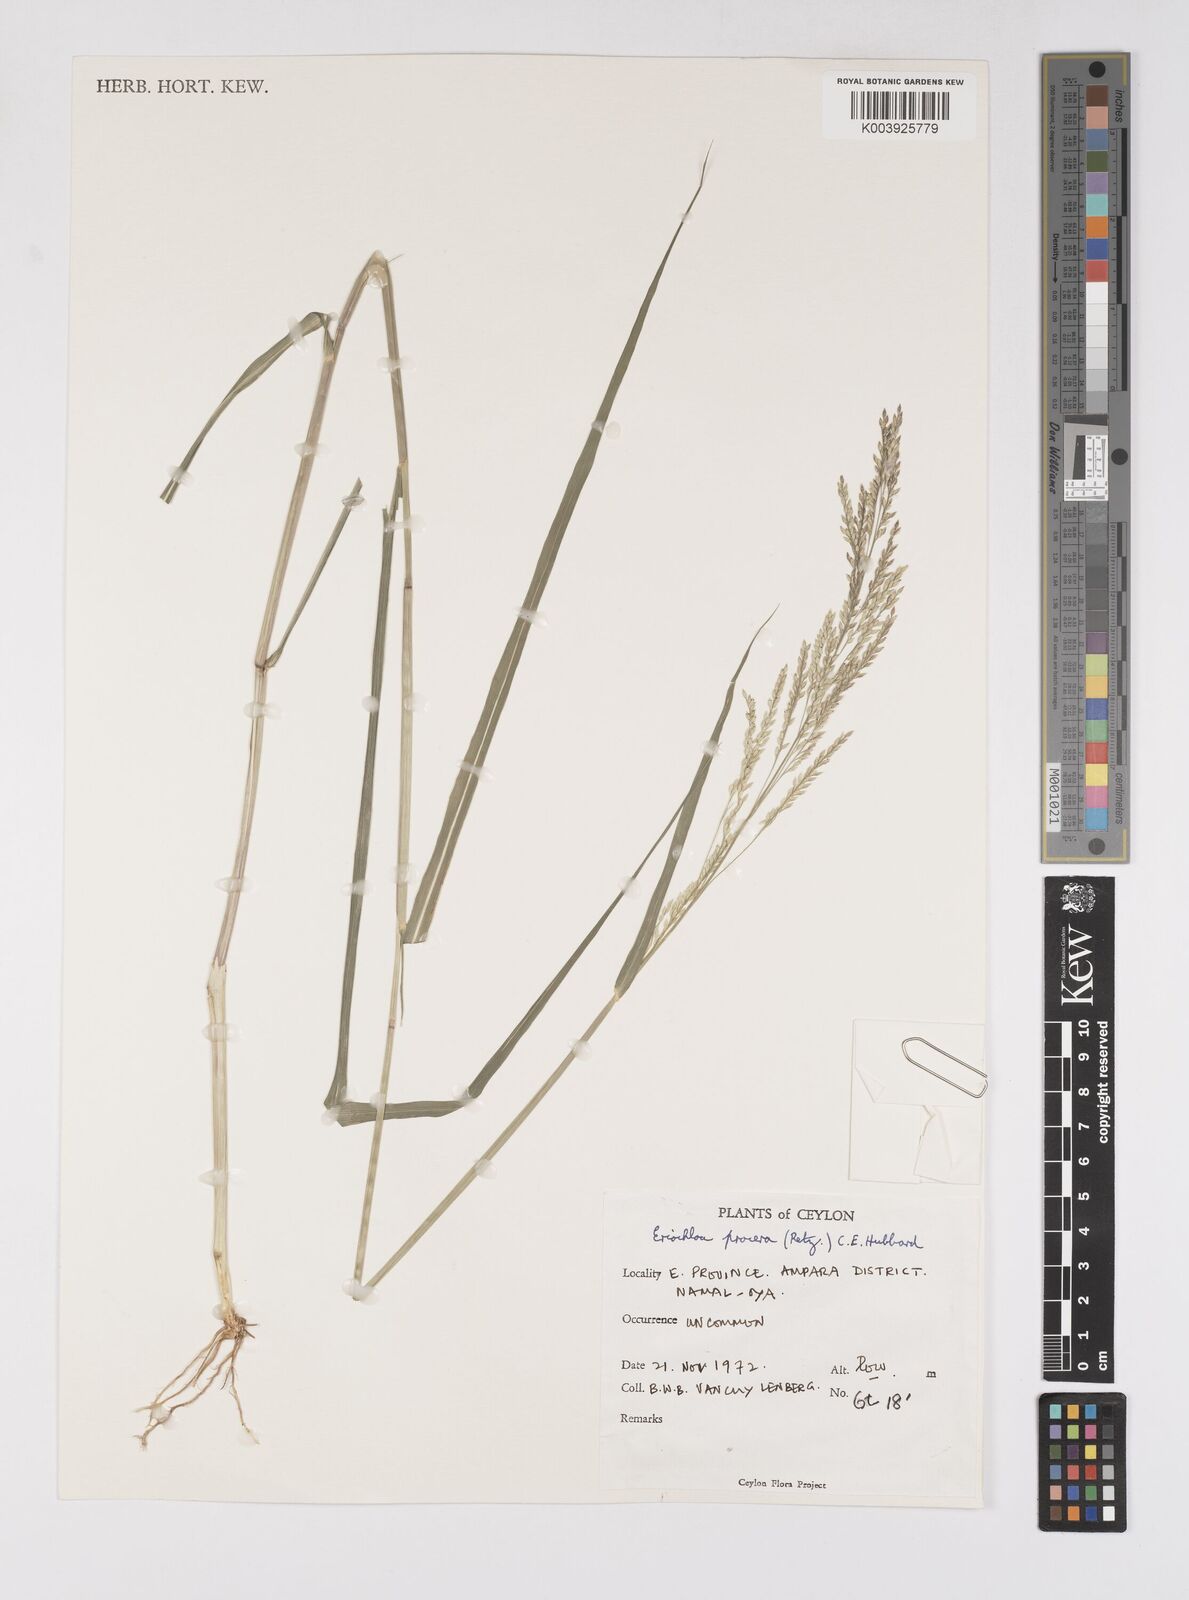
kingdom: Plantae
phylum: Tracheophyta
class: Liliopsida
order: Poales
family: Poaceae
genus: Eriochloa
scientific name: Eriochloa procera
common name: Spring grass
